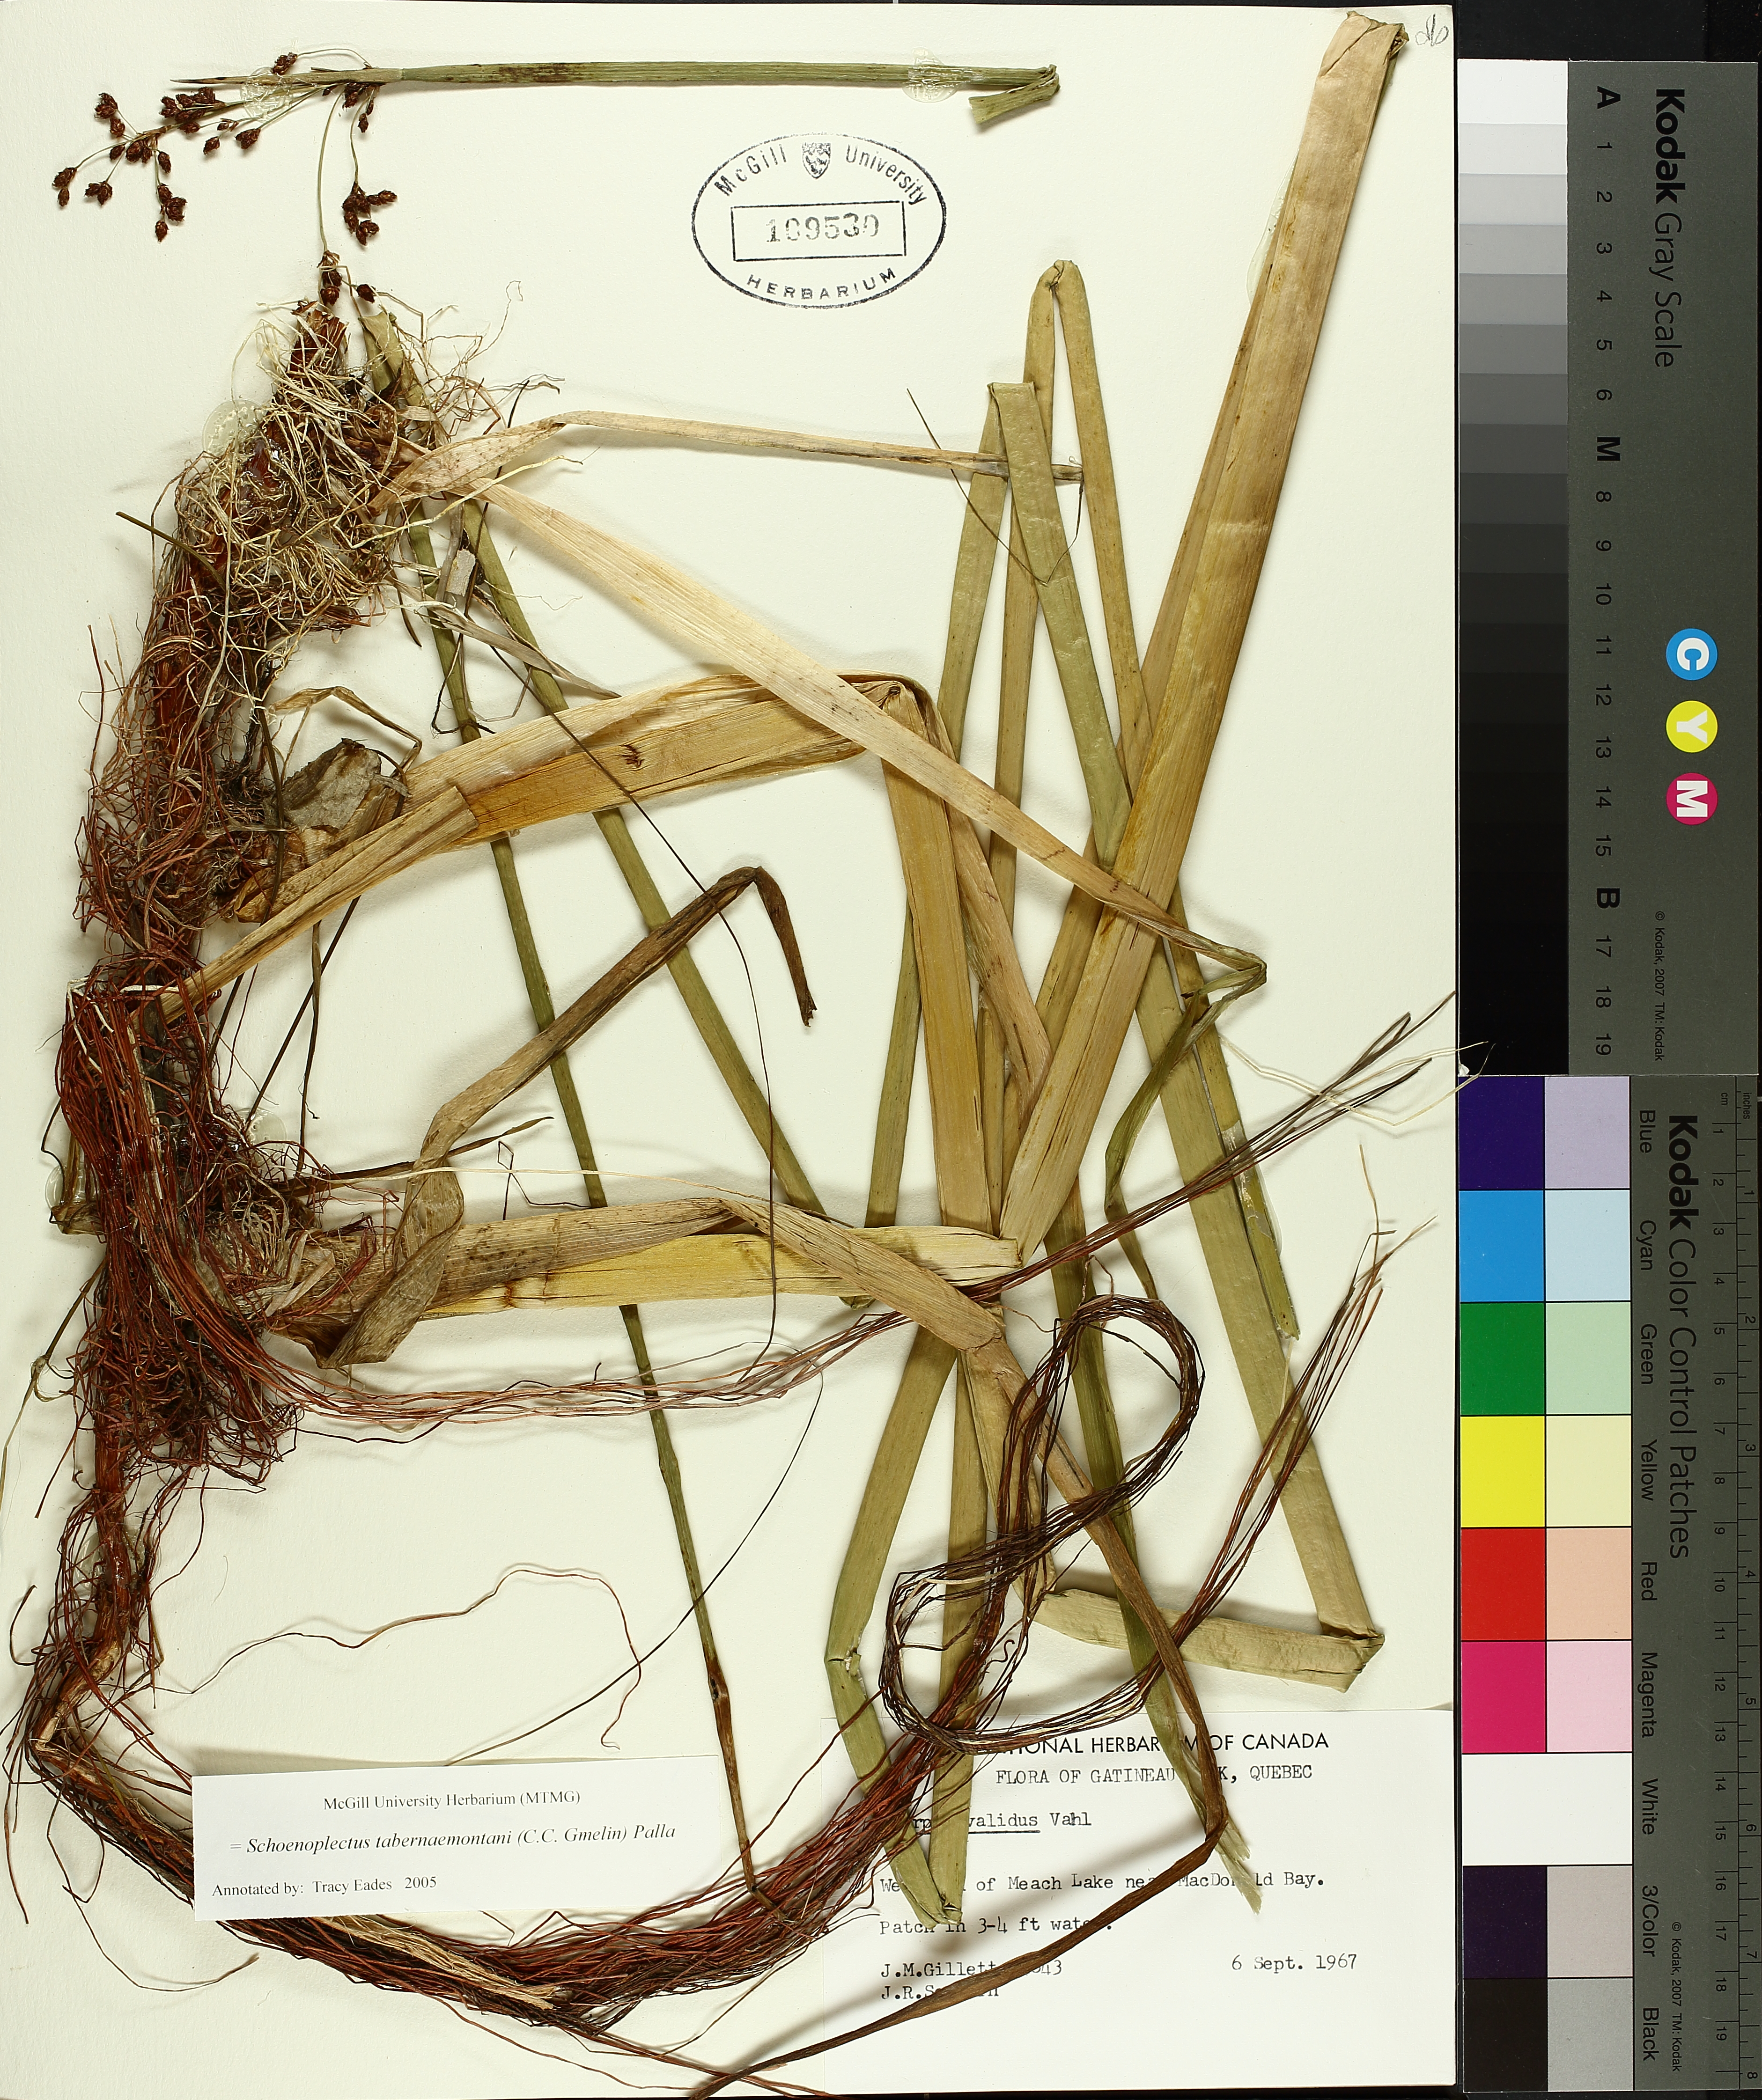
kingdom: Plantae
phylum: Tracheophyta
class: Liliopsida
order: Poales
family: Cyperaceae
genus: Schoenoplectus
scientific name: Schoenoplectus tabernaemontani
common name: Grey club-rush
